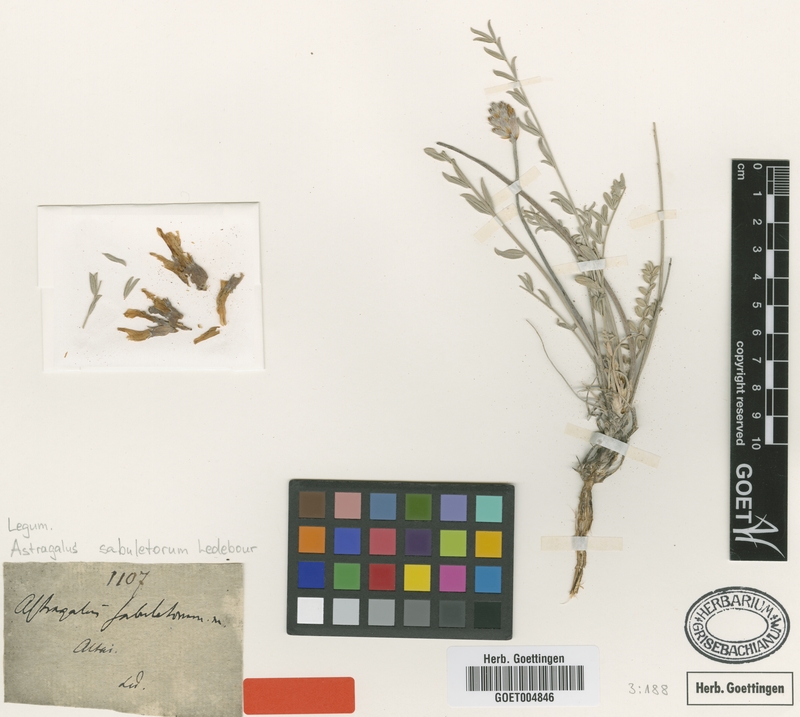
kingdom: Plantae
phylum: Tracheophyta
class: Magnoliopsida
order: Fabales
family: Fabaceae
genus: Astragalus
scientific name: Astragalus sabuletorum
